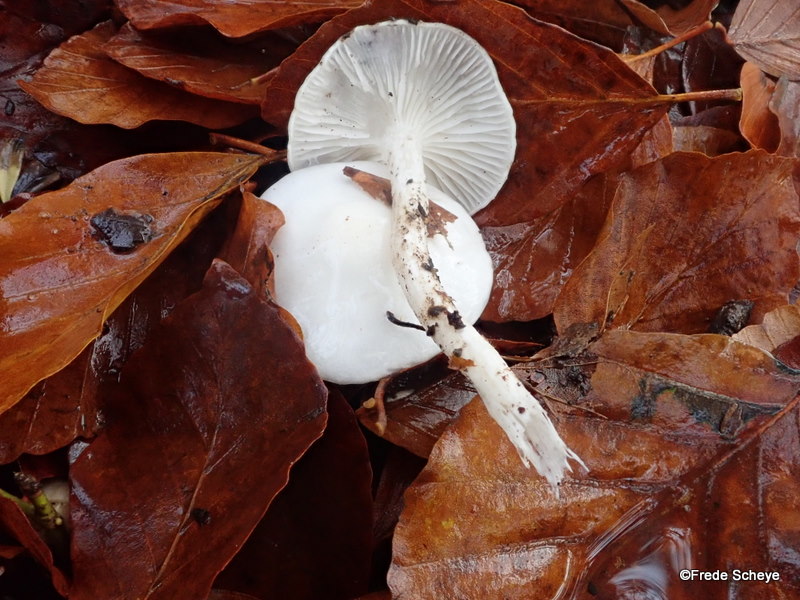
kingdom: Fungi
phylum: Basidiomycota
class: Agaricomycetes
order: Agaricales
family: Hygrophoraceae
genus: Hygrophorus
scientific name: Hygrophorus eburneus
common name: elfenbens-sneglehat
